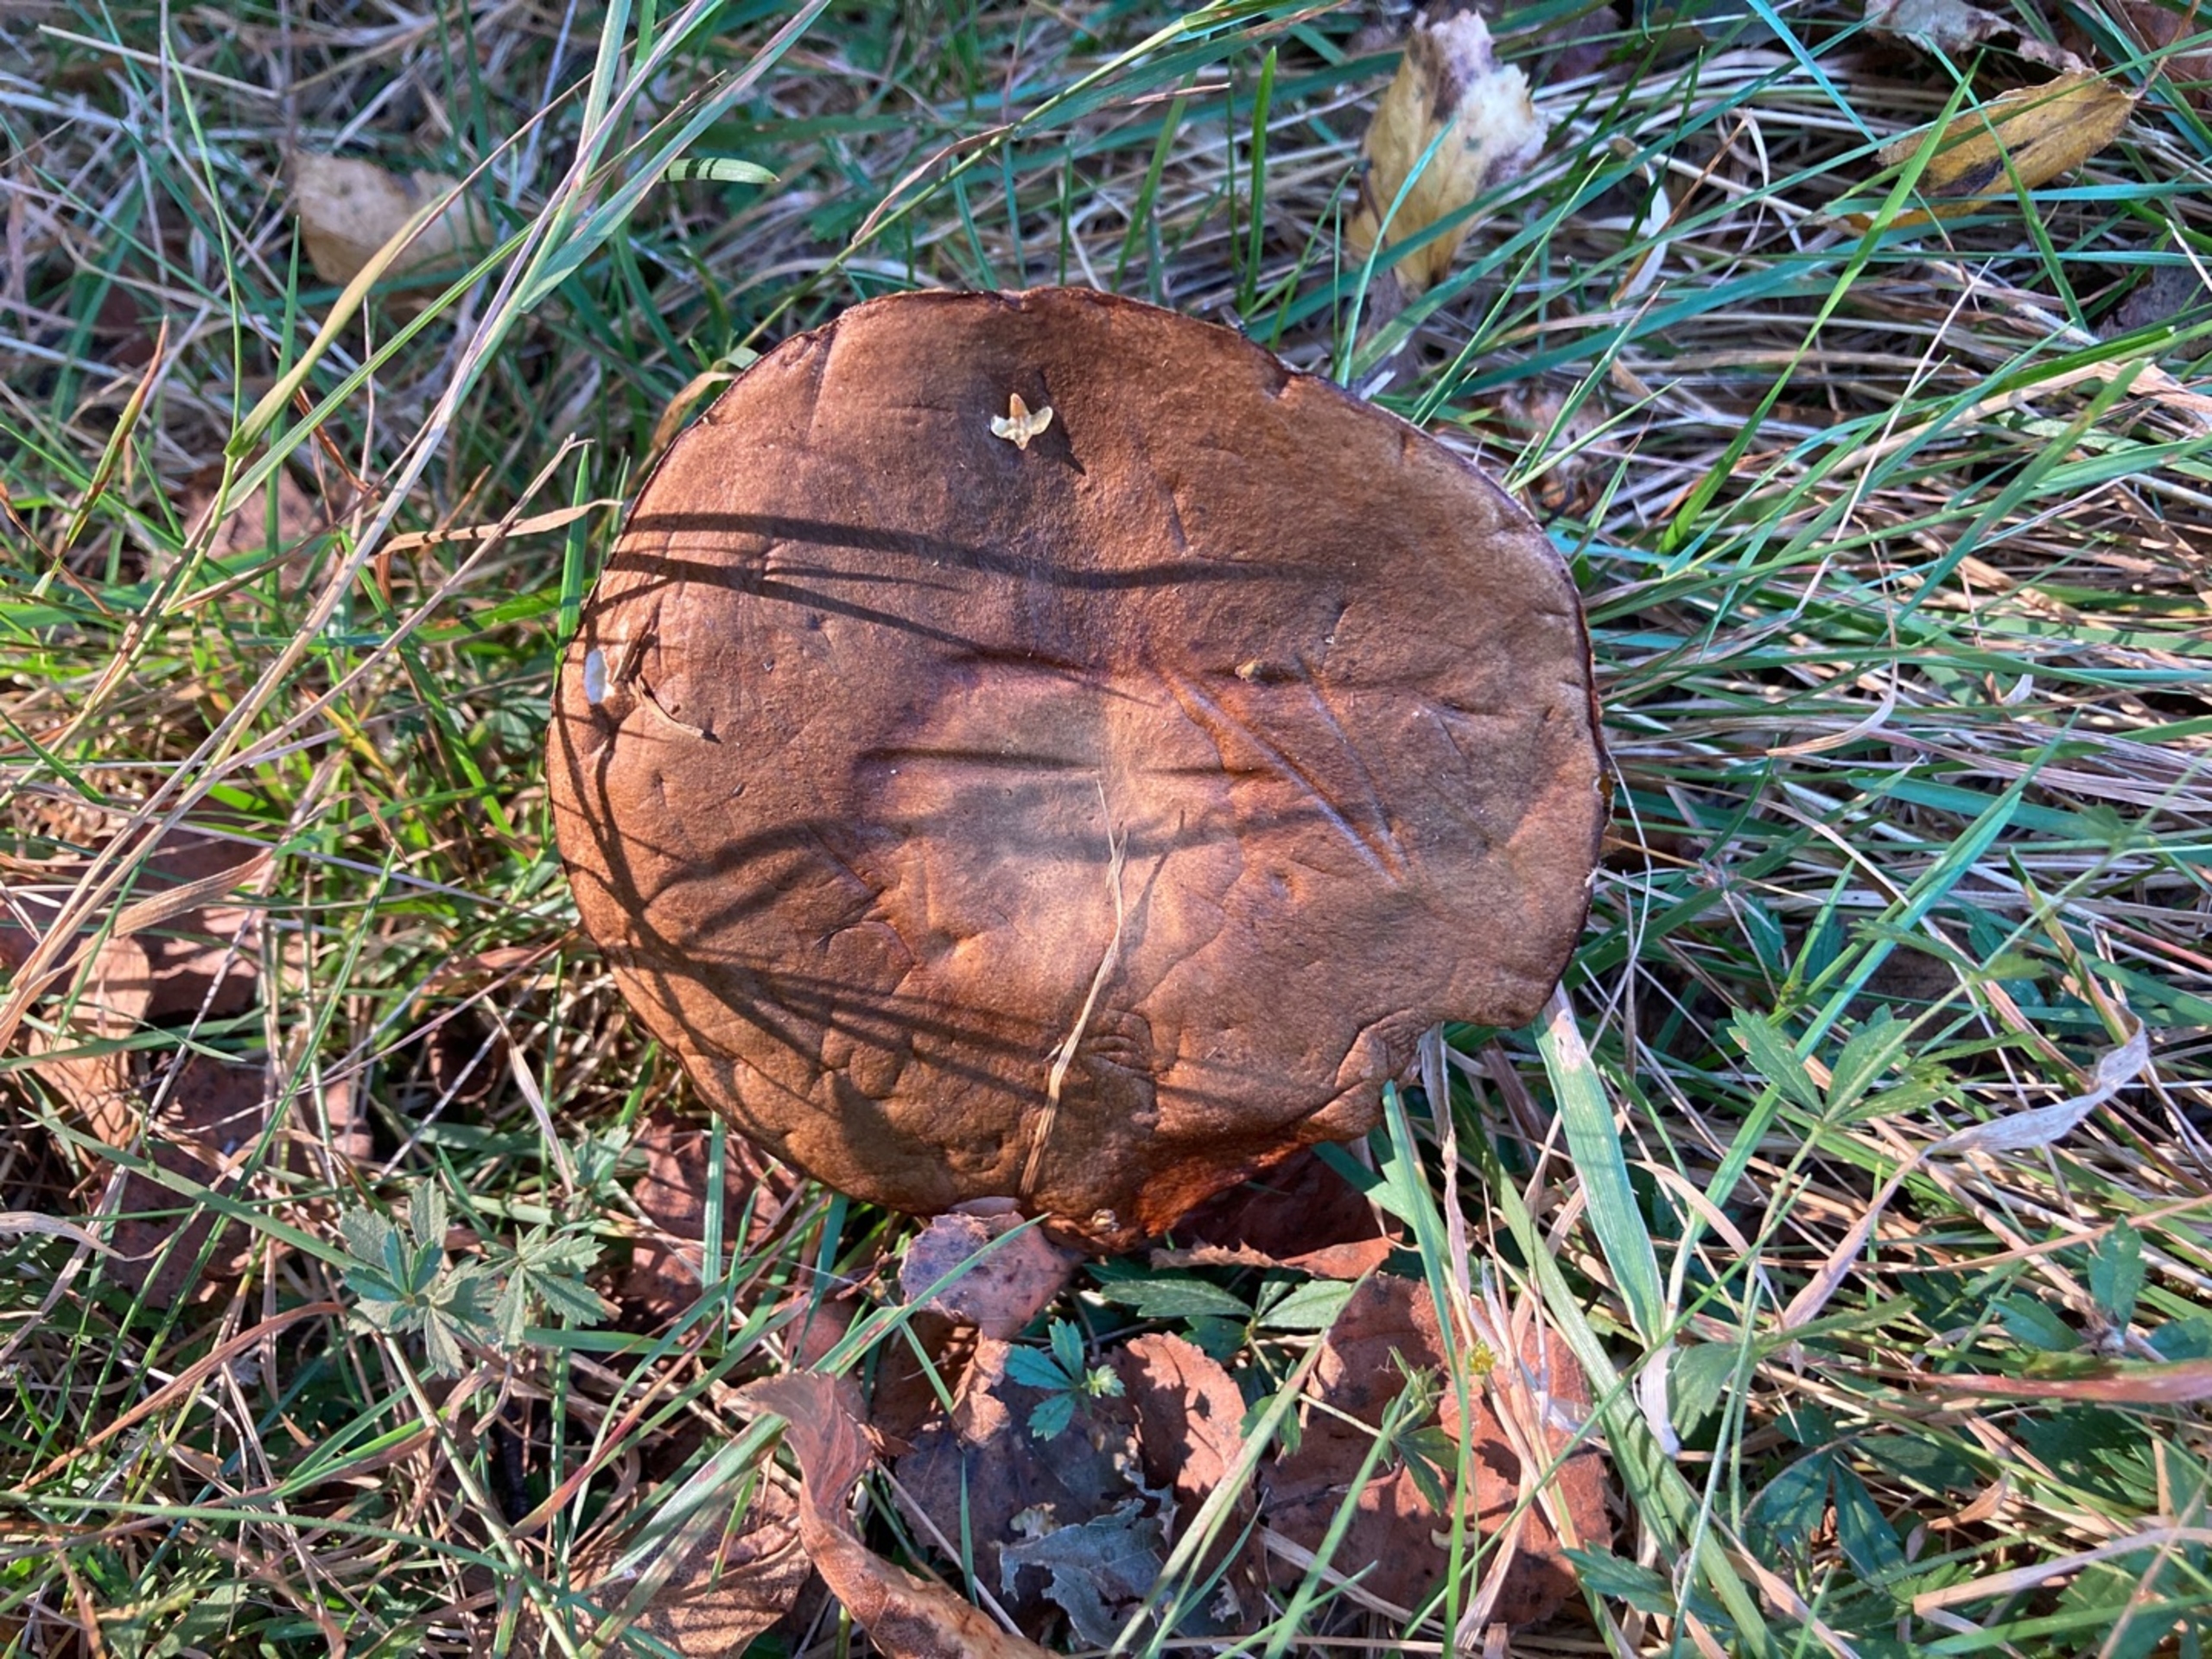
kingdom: Fungi
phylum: Basidiomycota
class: Agaricomycetes
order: Boletales
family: Boletaceae
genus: Leccinum
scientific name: Leccinum
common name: Skælrørhat
